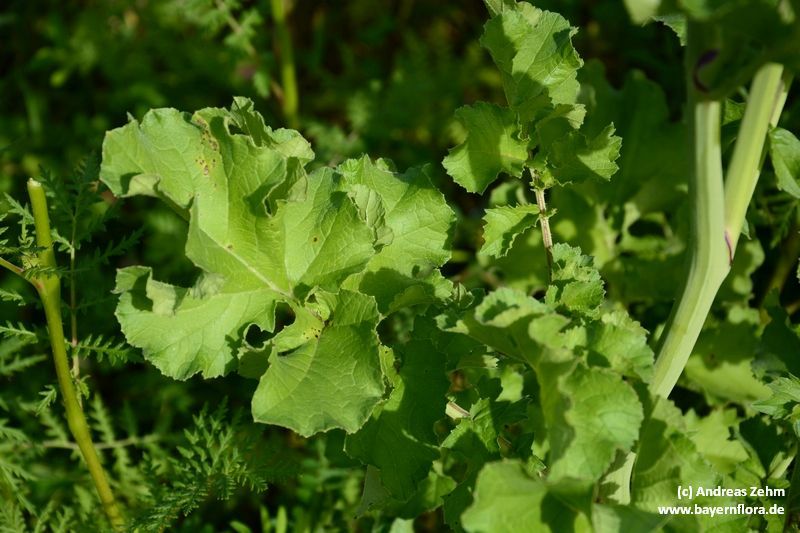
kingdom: Plantae
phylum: Tracheophyta
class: Magnoliopsida
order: Brassicales
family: Brassicaceae
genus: Raphanus
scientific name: Raphanus sativus
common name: Cultivated radish
